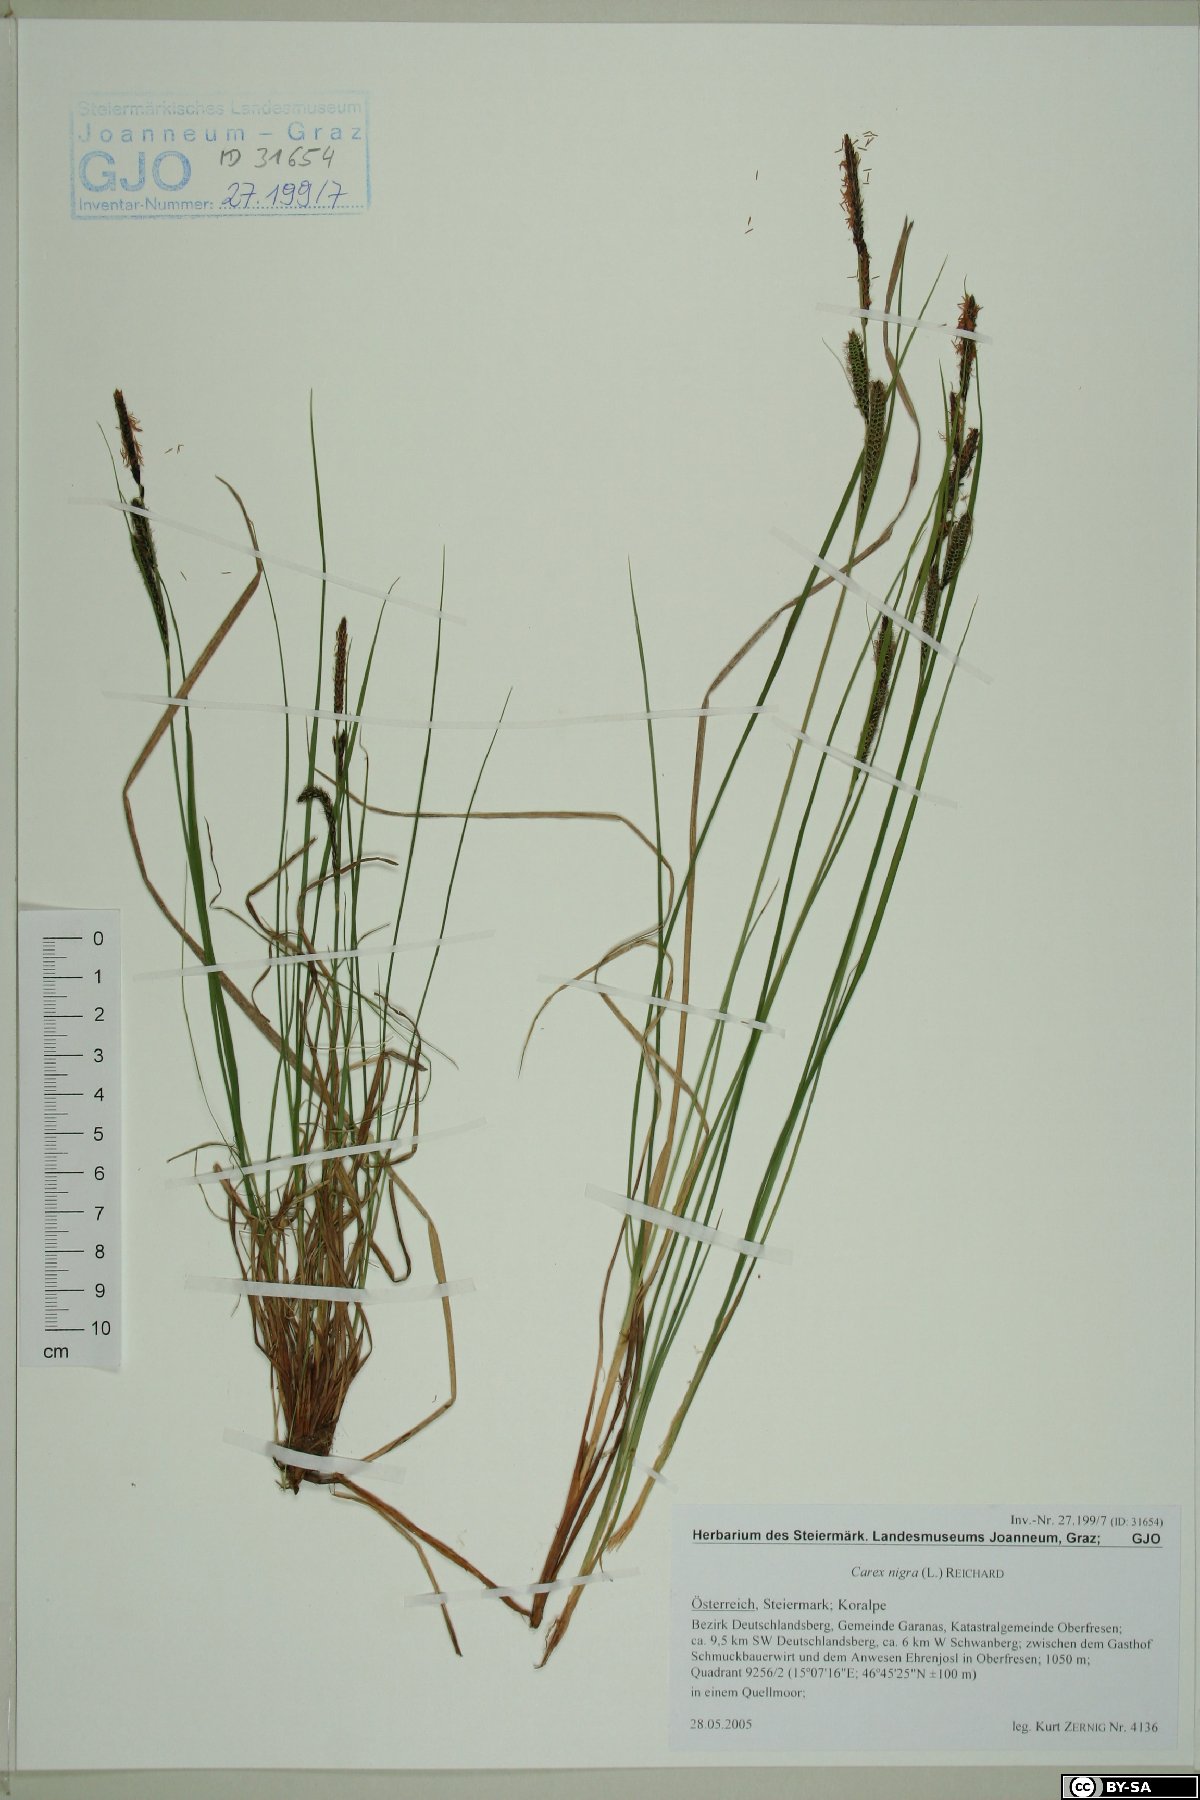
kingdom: Plantae
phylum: Tracheophyta
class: Liliopsida
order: Poales
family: Cyperaceae
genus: Carex
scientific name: Carex nigra
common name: Common sedge
